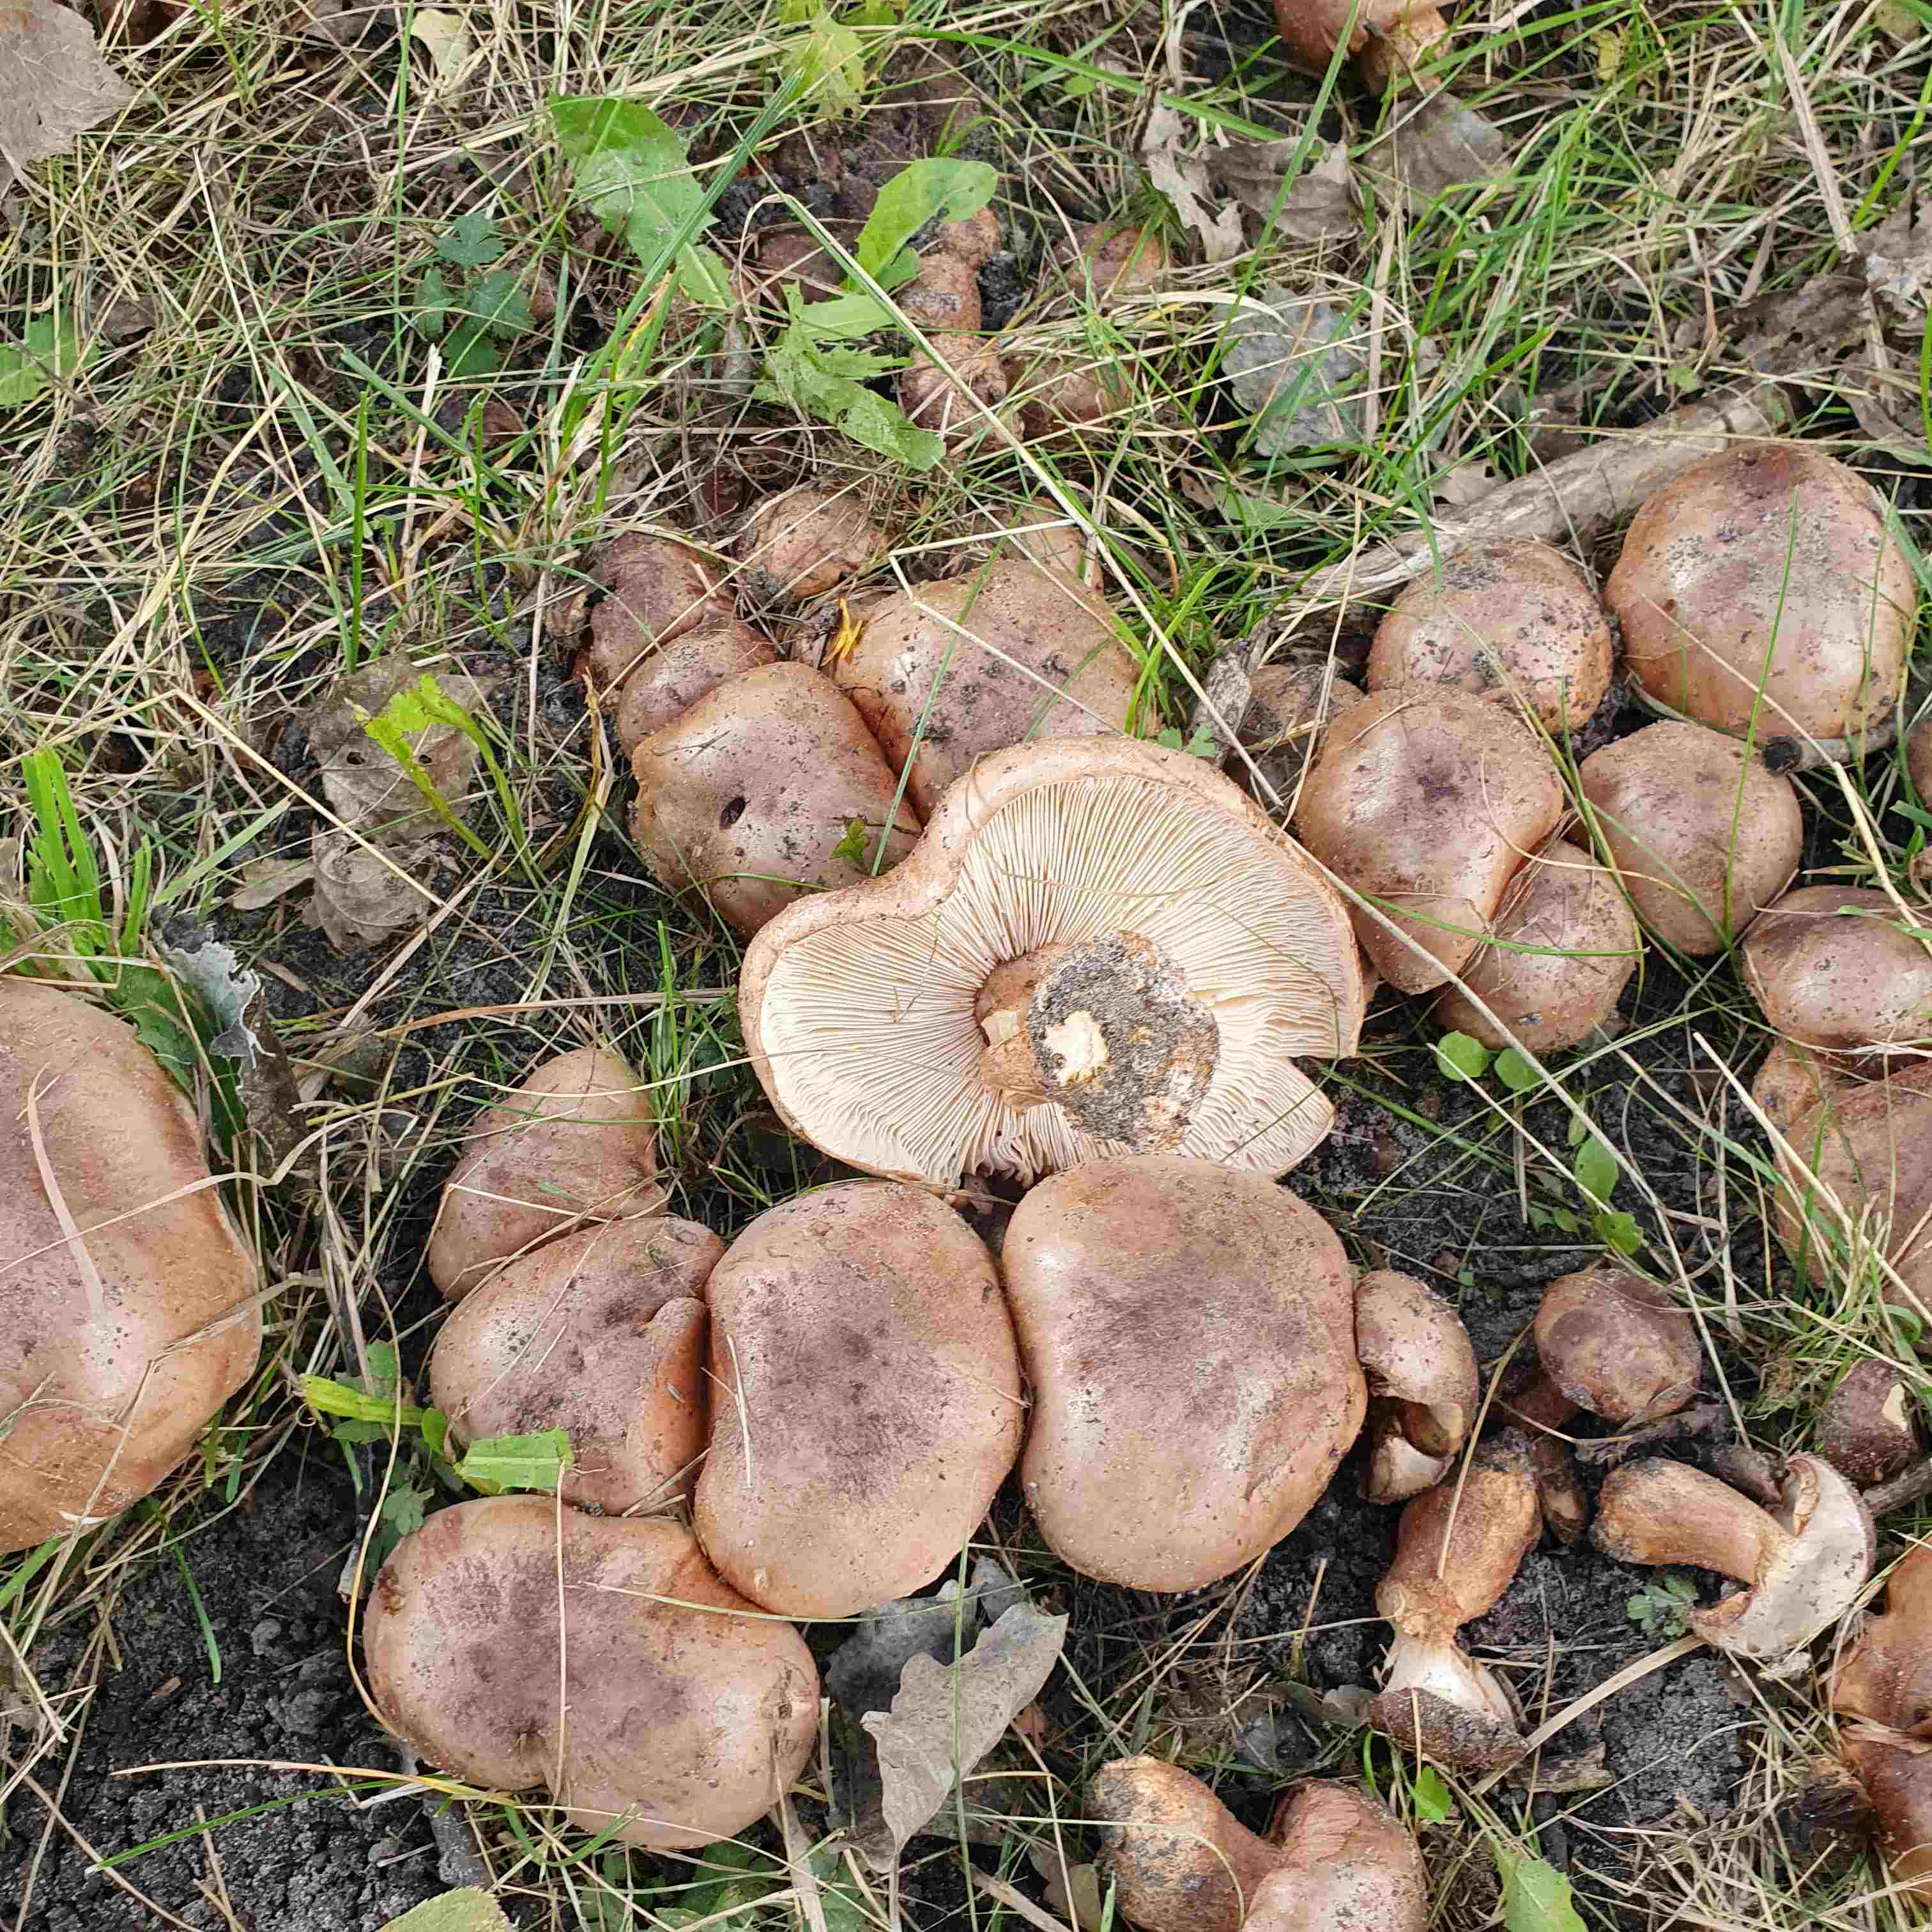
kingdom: Fungi
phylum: Basidiomycota
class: Agaricomycetes
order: Agaricales
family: Tricholomataceae
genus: Tricholoma
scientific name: Tricholoma populinum
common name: poppel-ridderhat
